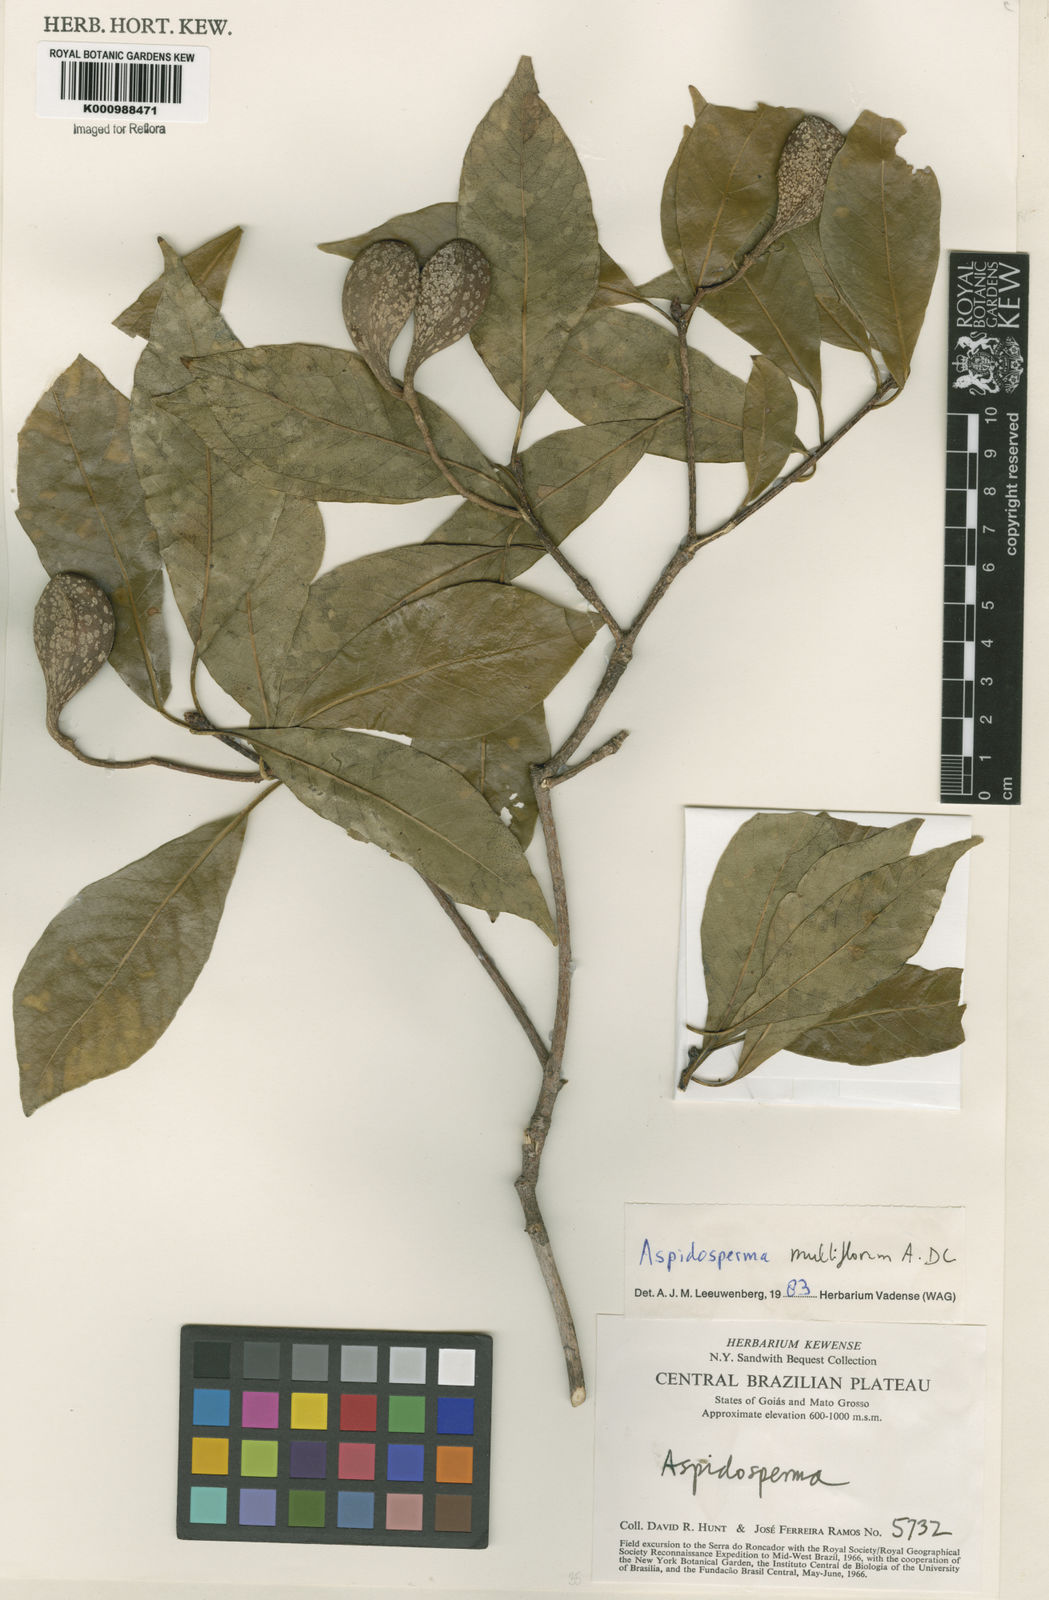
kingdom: Plantae
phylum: Tracheophyta
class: Magnoliopsida
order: Gentianales
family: Apocynaceae
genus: Aspidosperma
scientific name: Aspidosperma multiflorum
